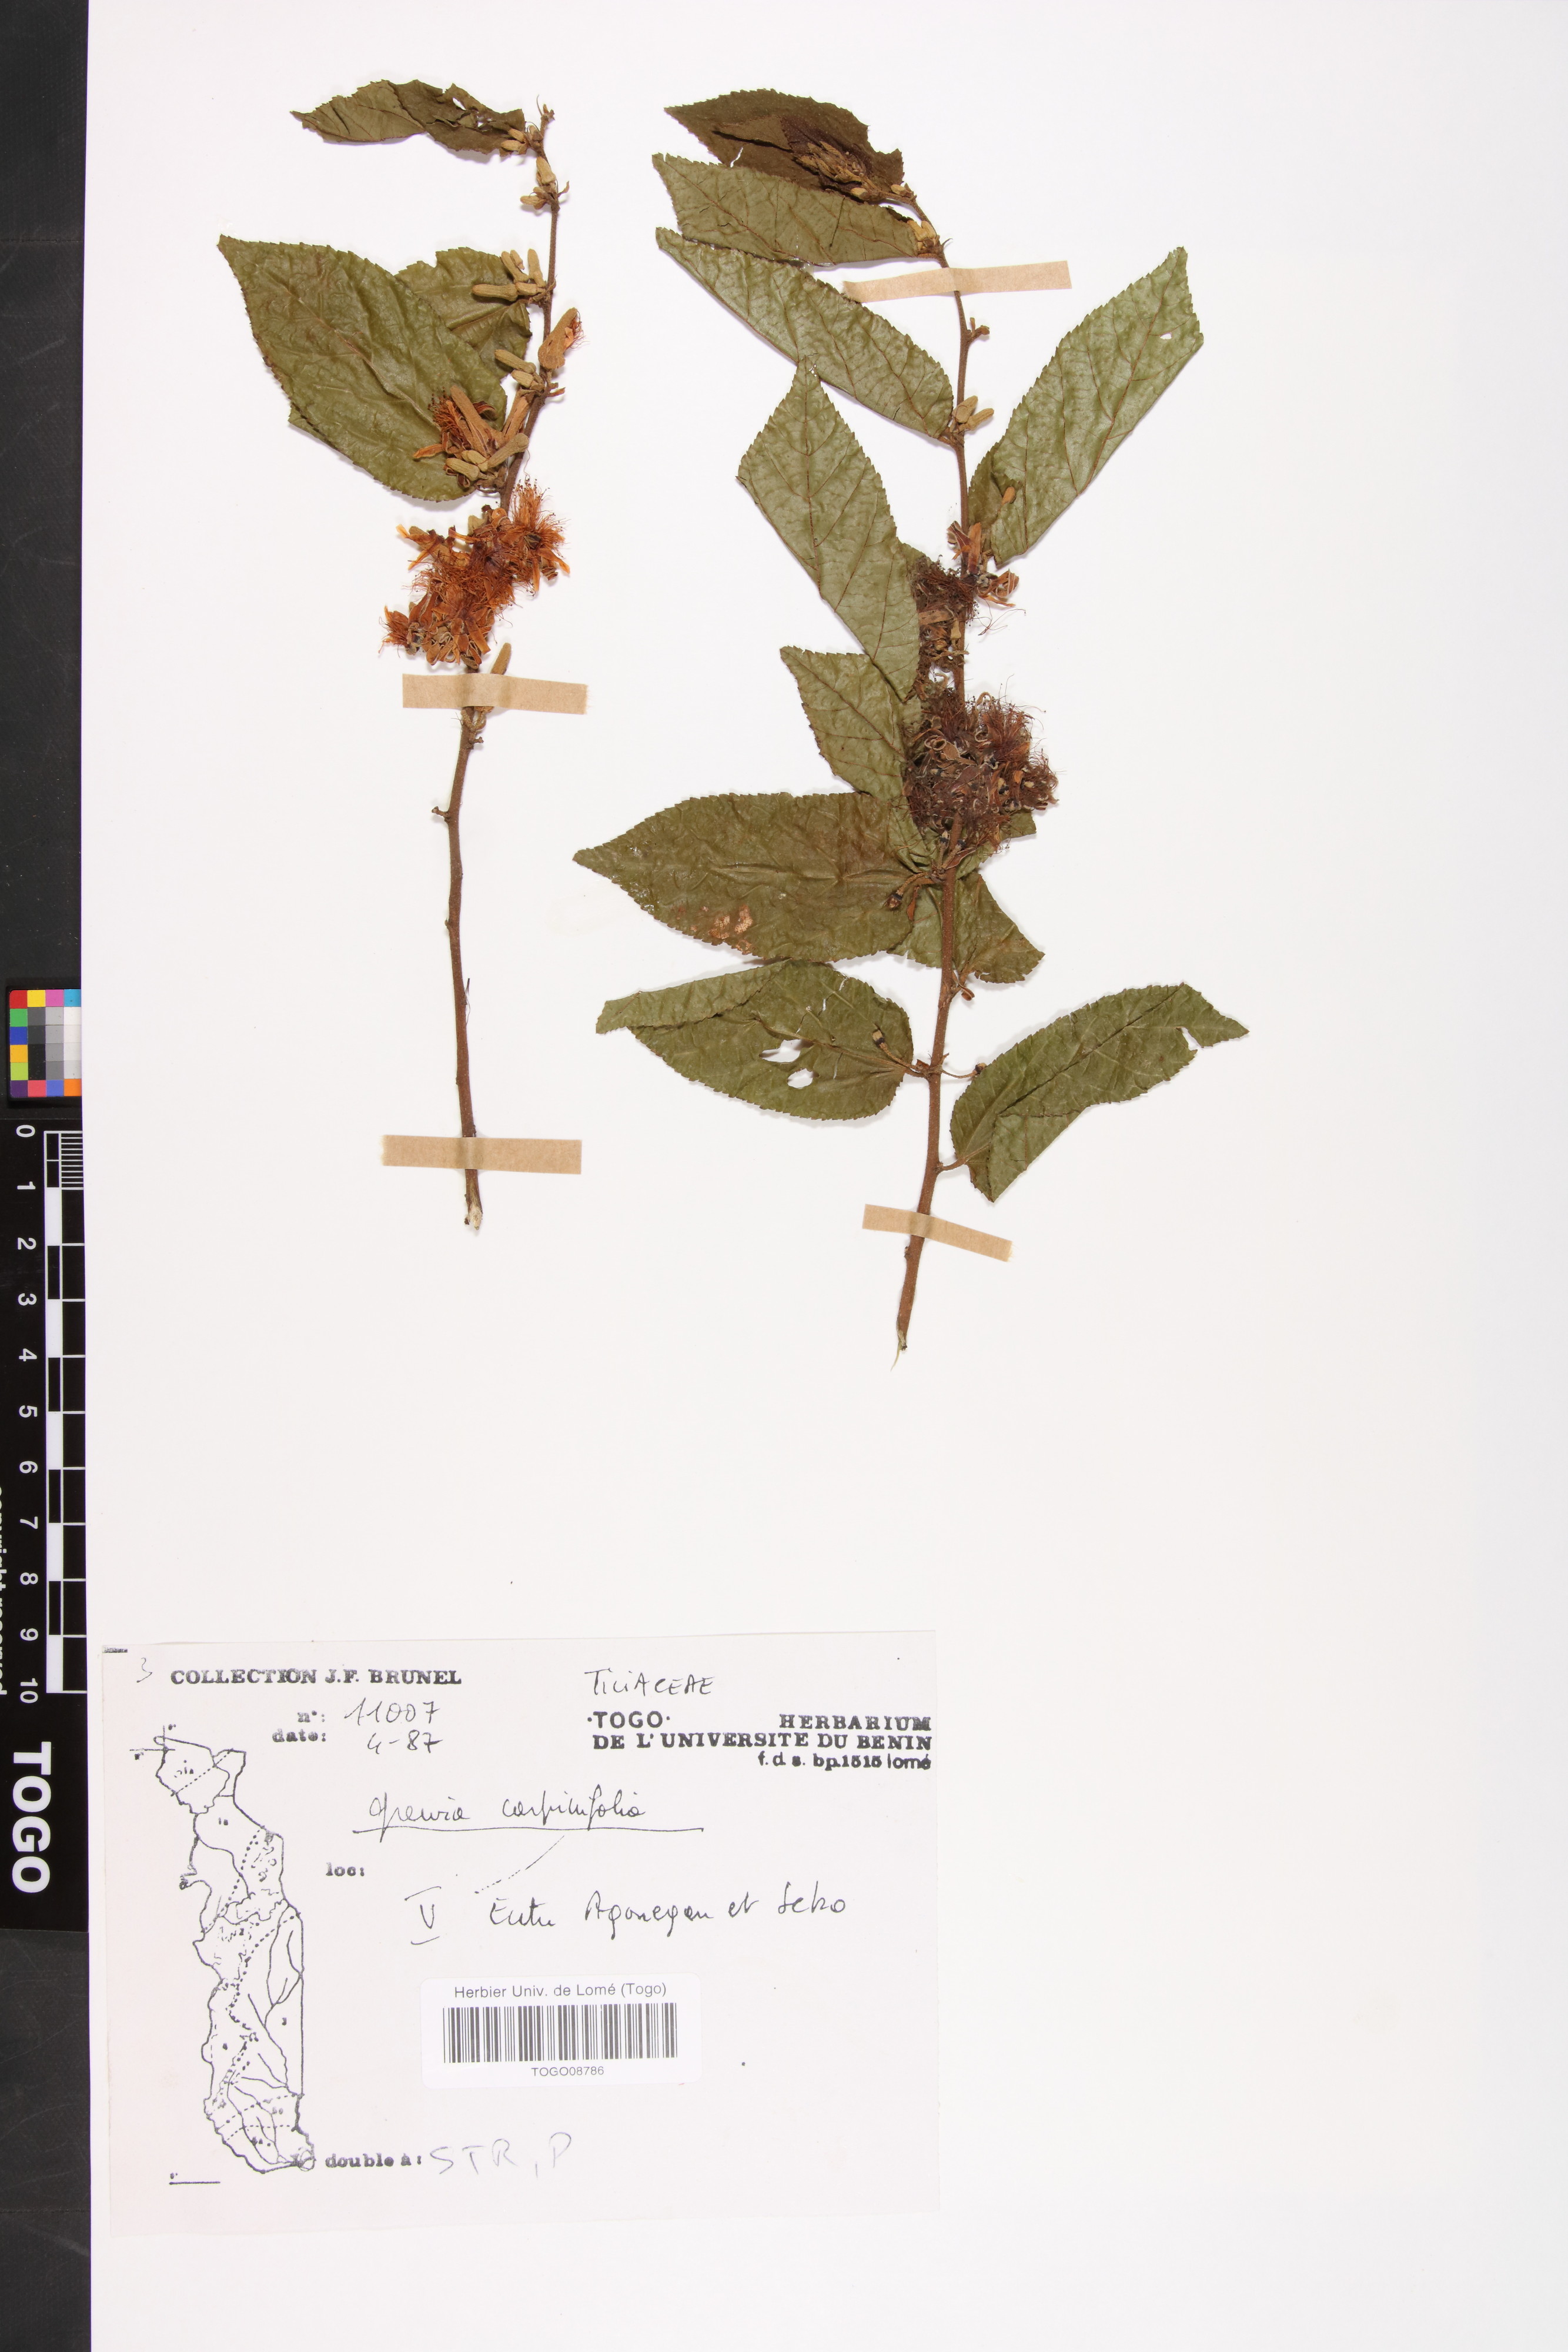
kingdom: Plantae
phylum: Tracheophyta
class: Magnoliopsida
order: Malvales
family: Malvaceae
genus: Grewia
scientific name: Grewia carpinifolia
